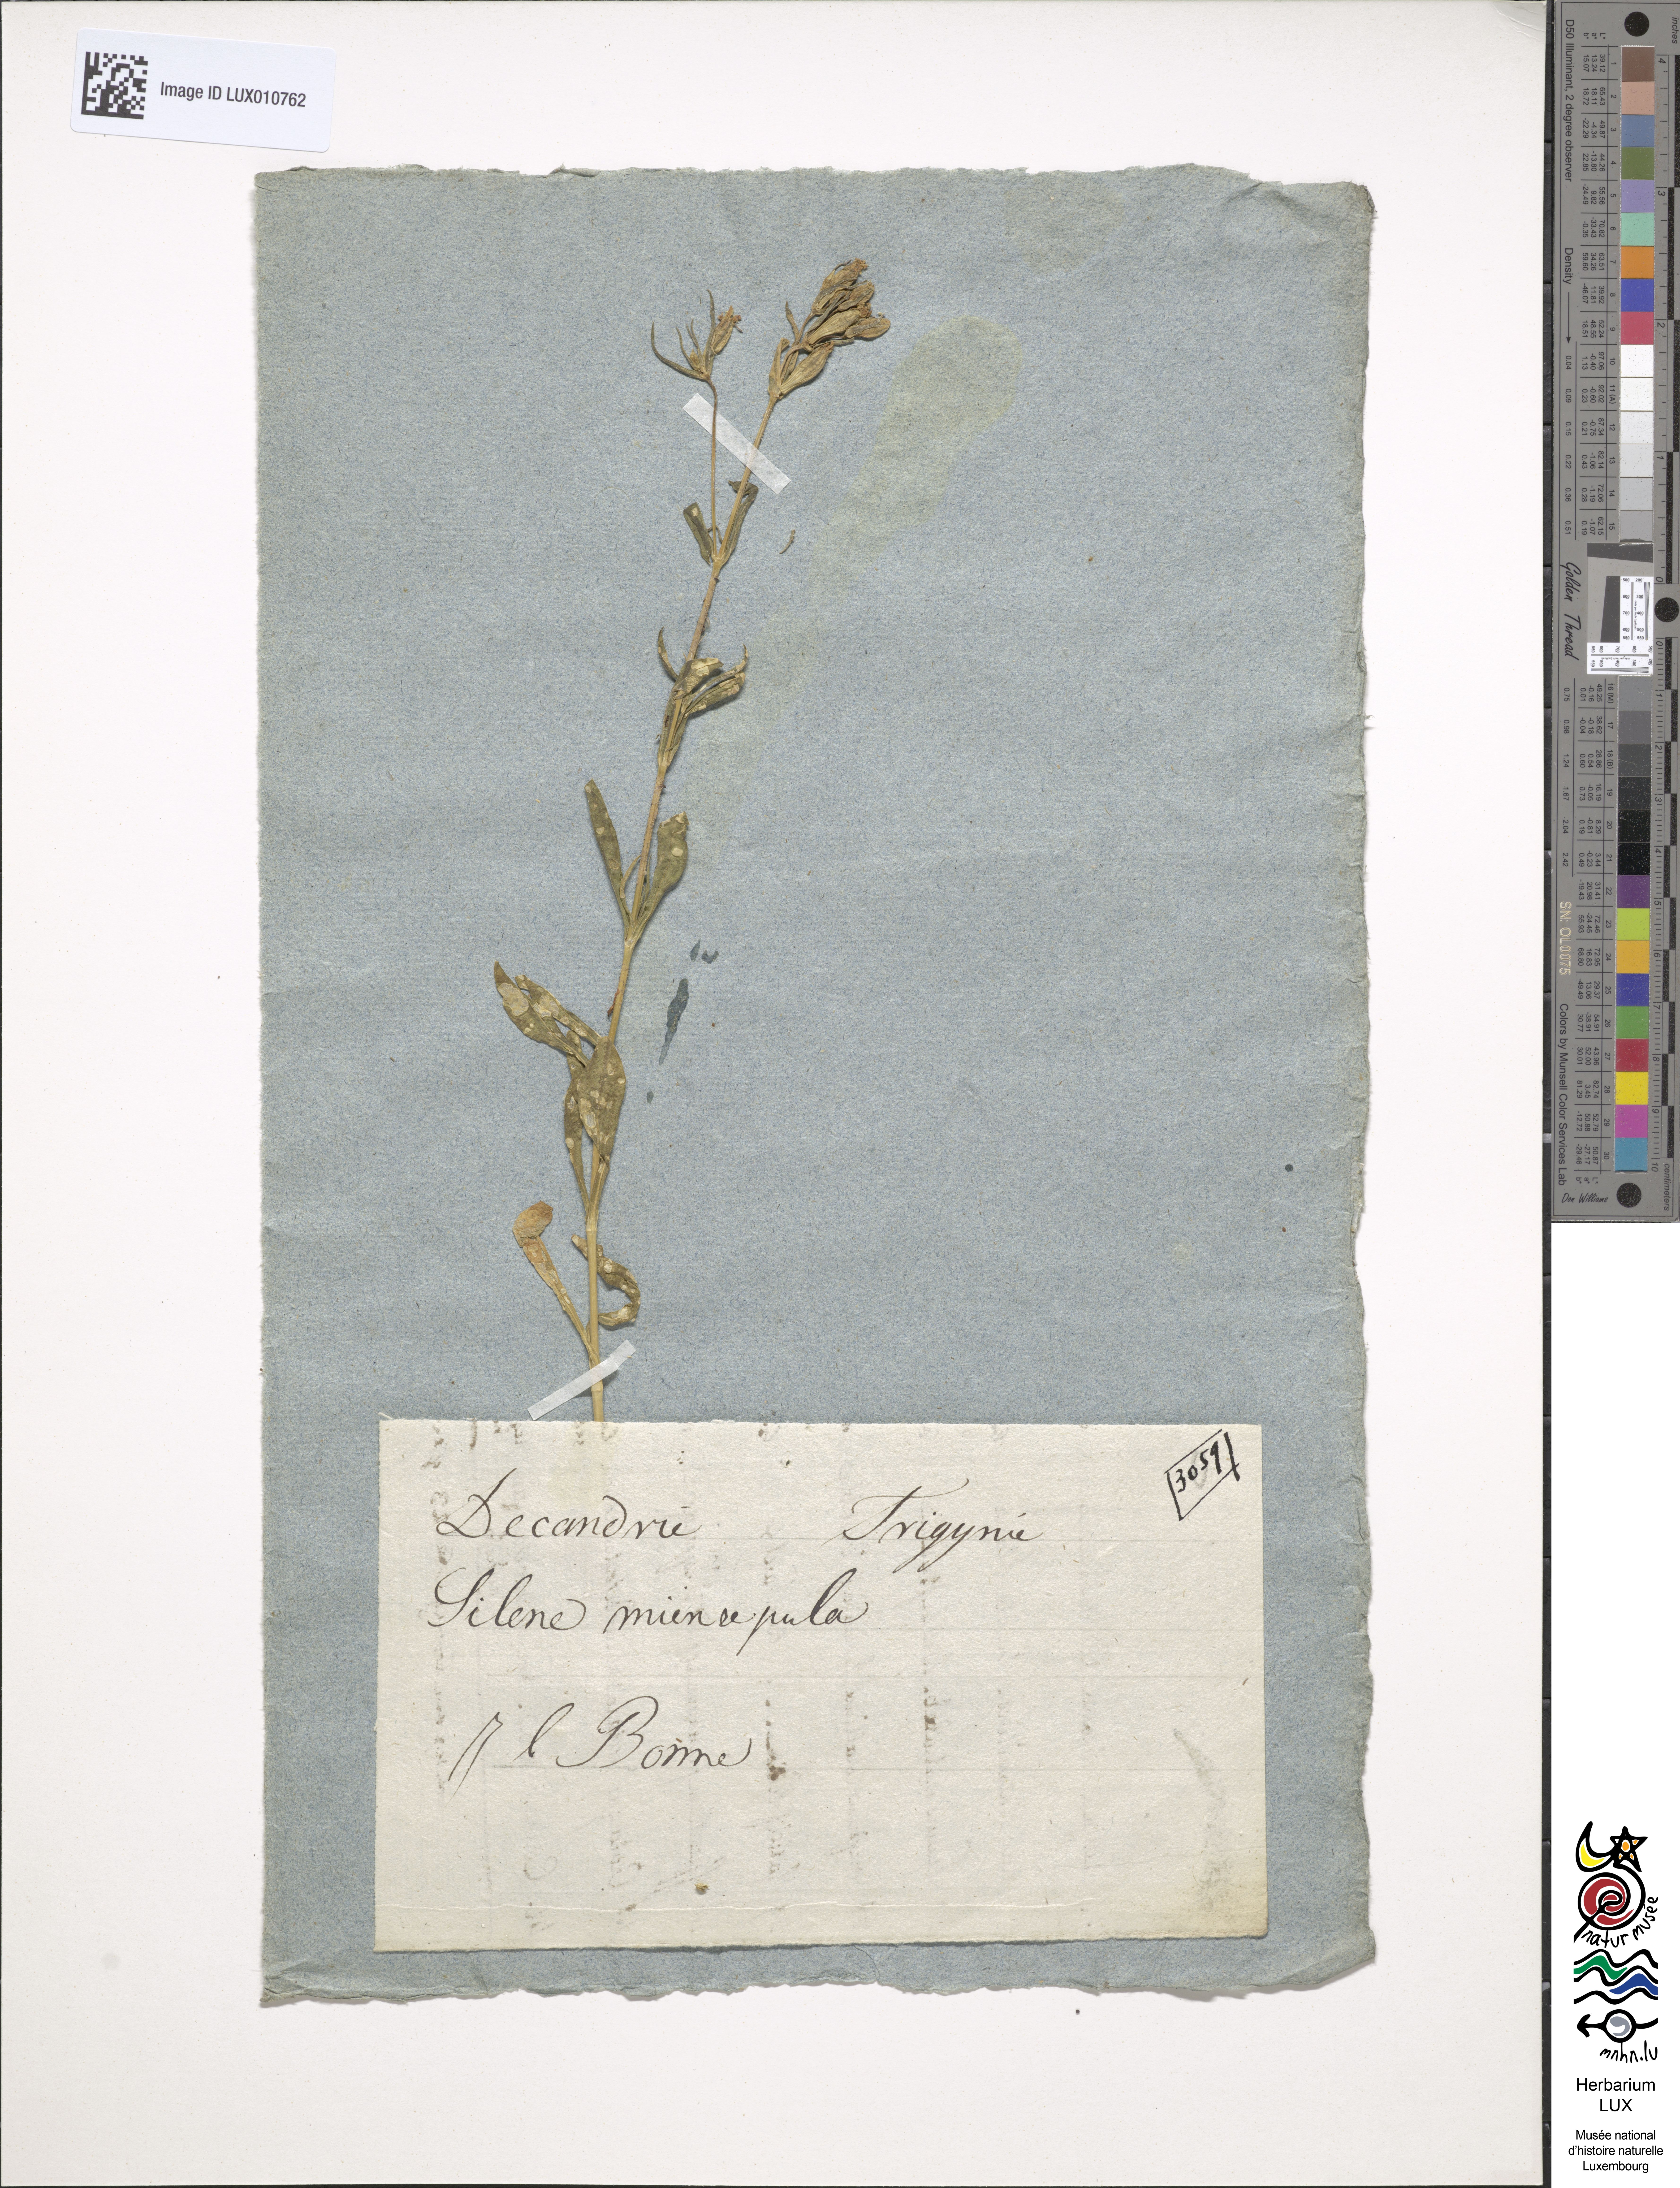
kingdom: Plantae
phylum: Tracheophyta
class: Magnoliopsida
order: Caryophyllales
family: Caryophyllaceae
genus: Silene
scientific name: Silene muscipula
